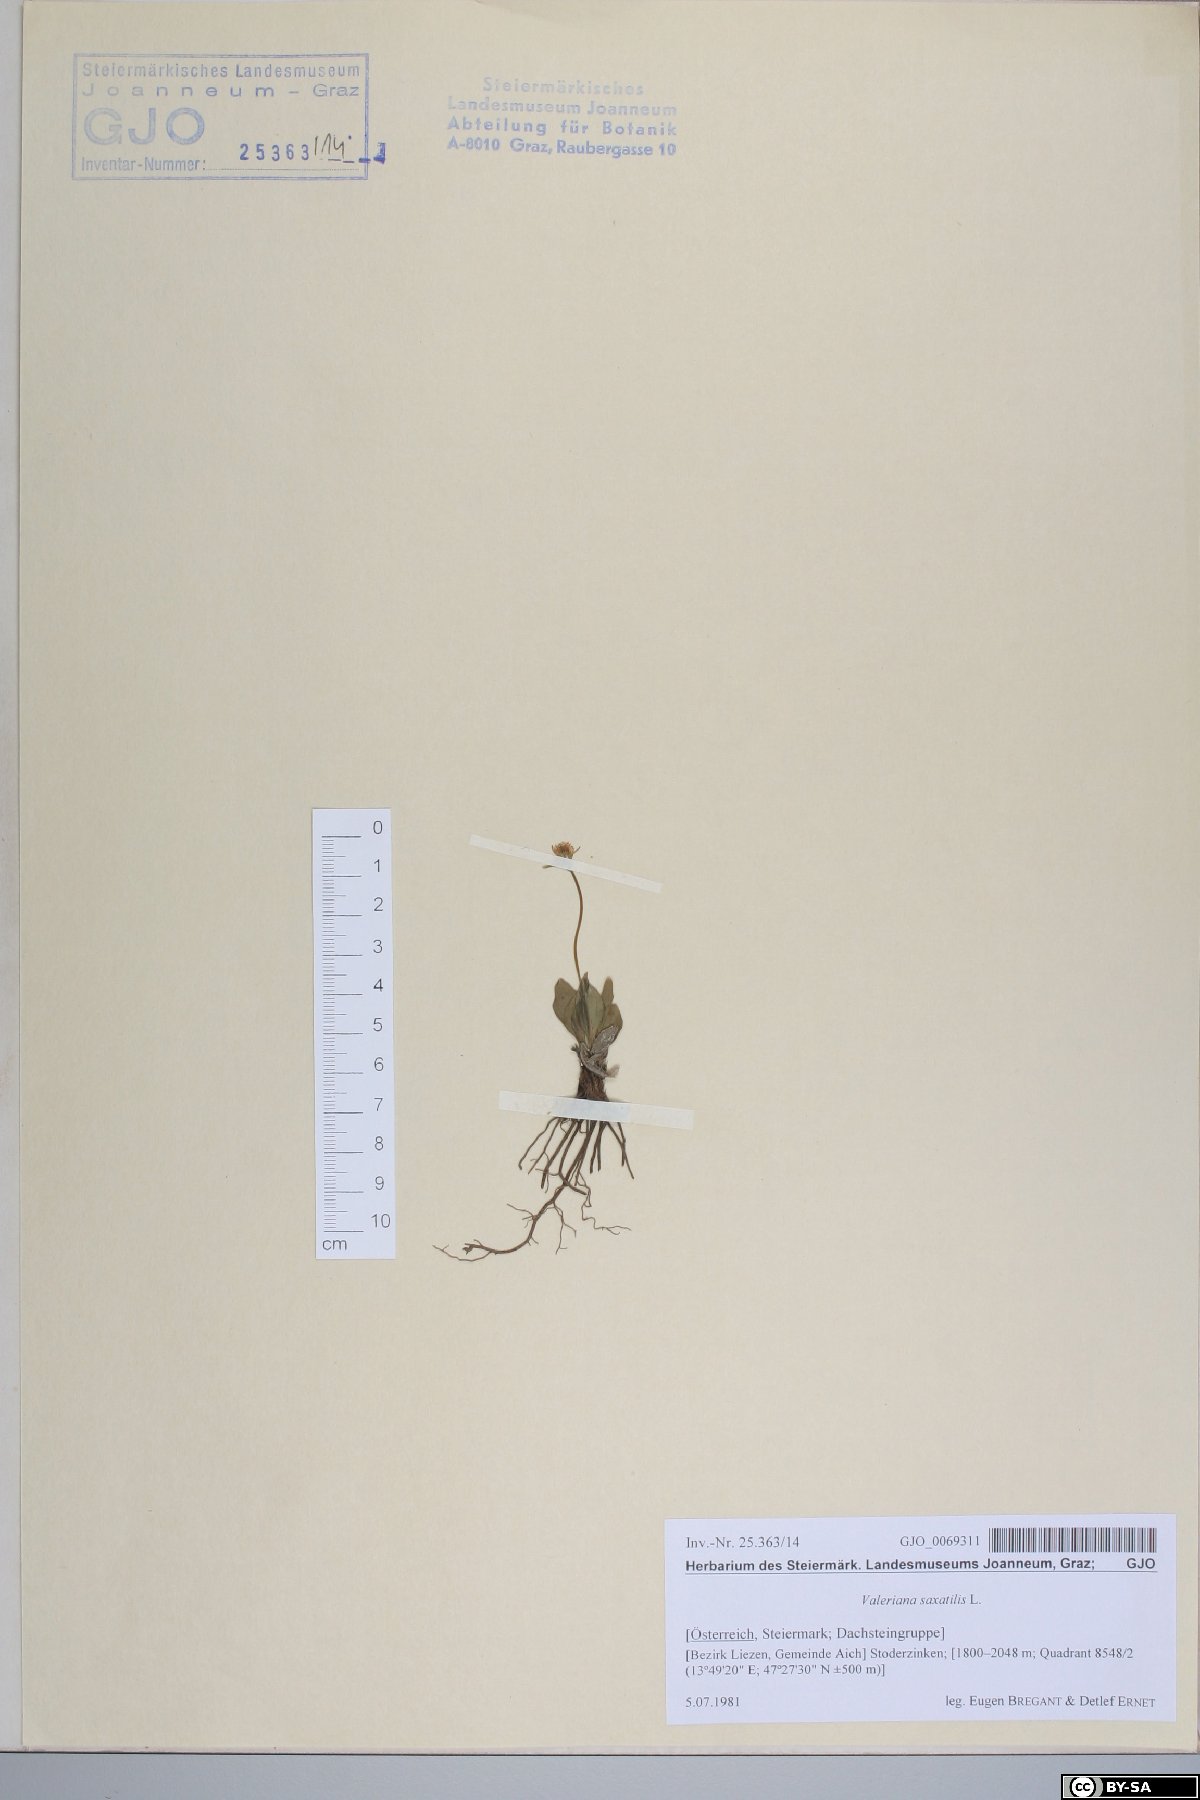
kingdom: Plantae
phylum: Tracheophyta
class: Magnoliopsida
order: Dipsacales
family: Caprifoliaceae
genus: Valeriana
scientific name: Valeriana saxatilis
